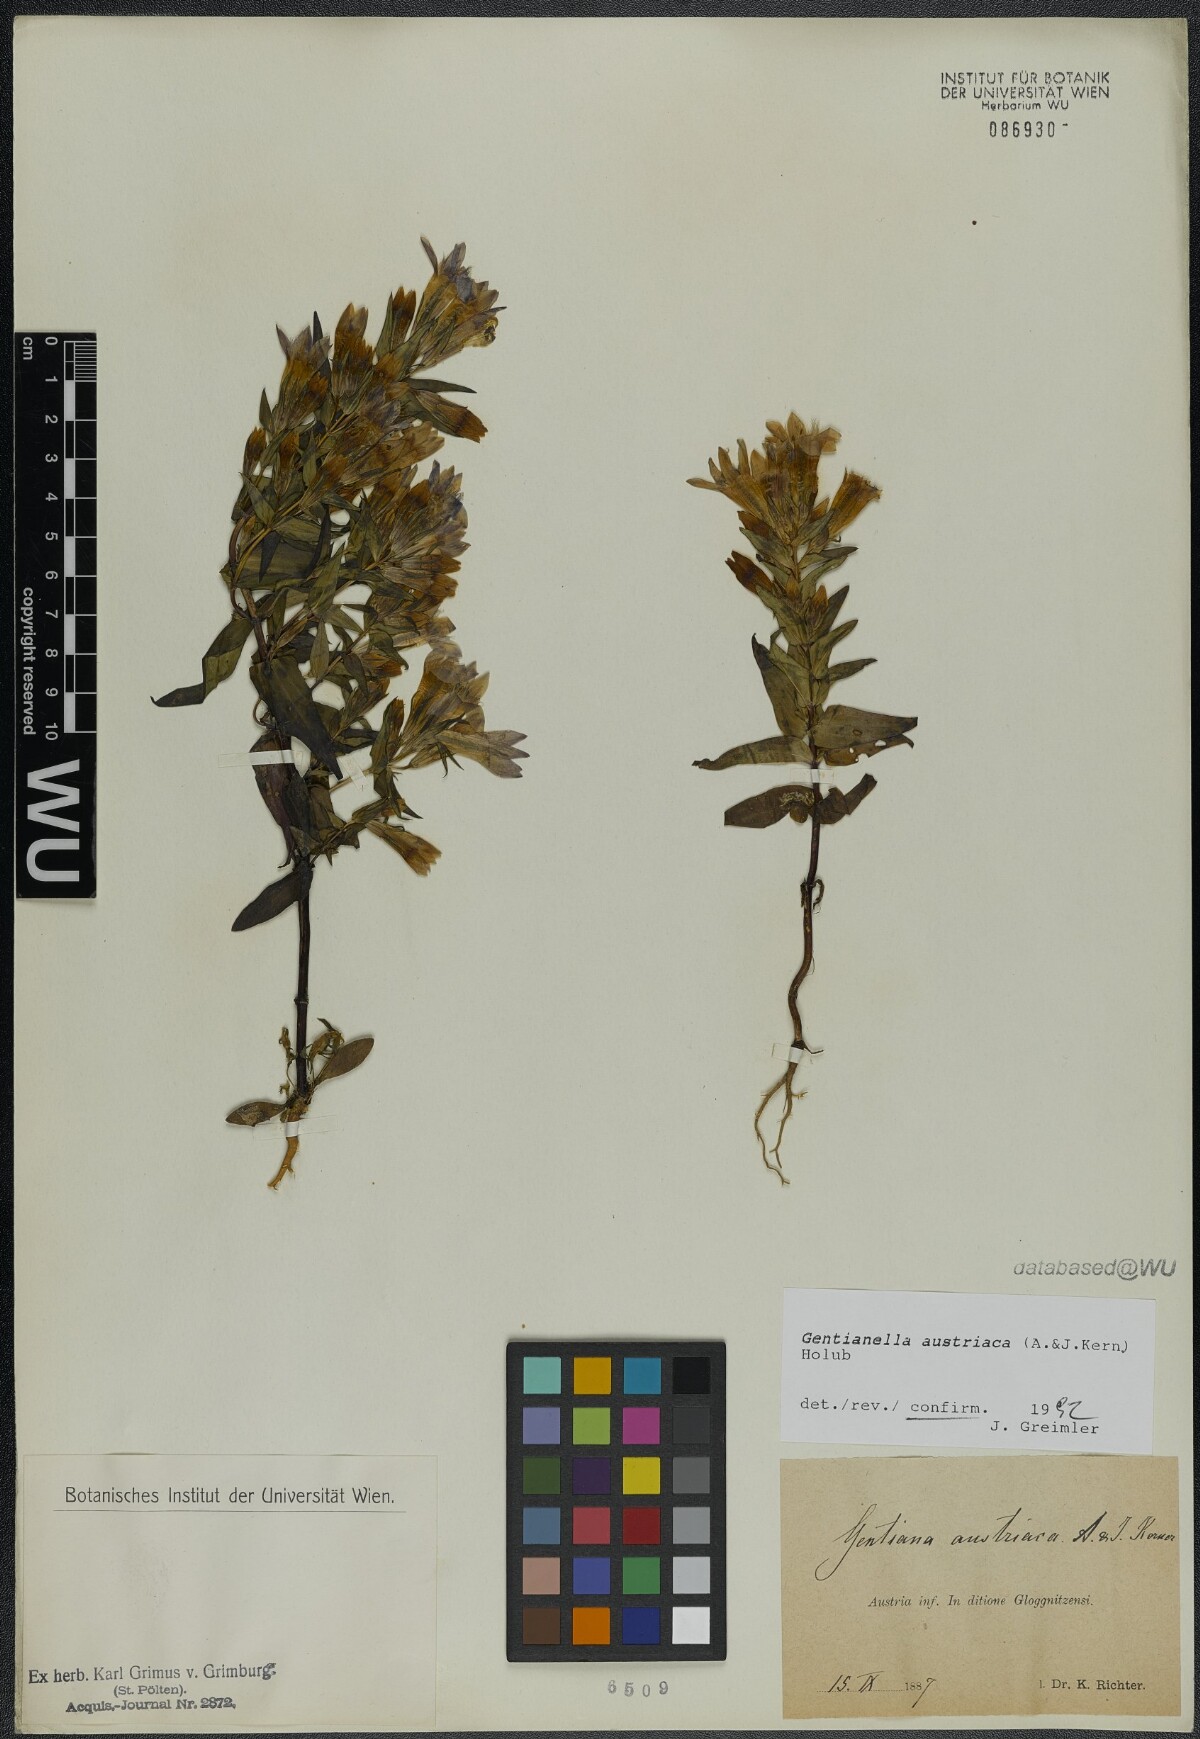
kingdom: Plantae
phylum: Tracheophyta
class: Magnoliopsida
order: Gentianales
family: Gentianaceae
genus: Gentianella
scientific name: Gentianella austriaca
